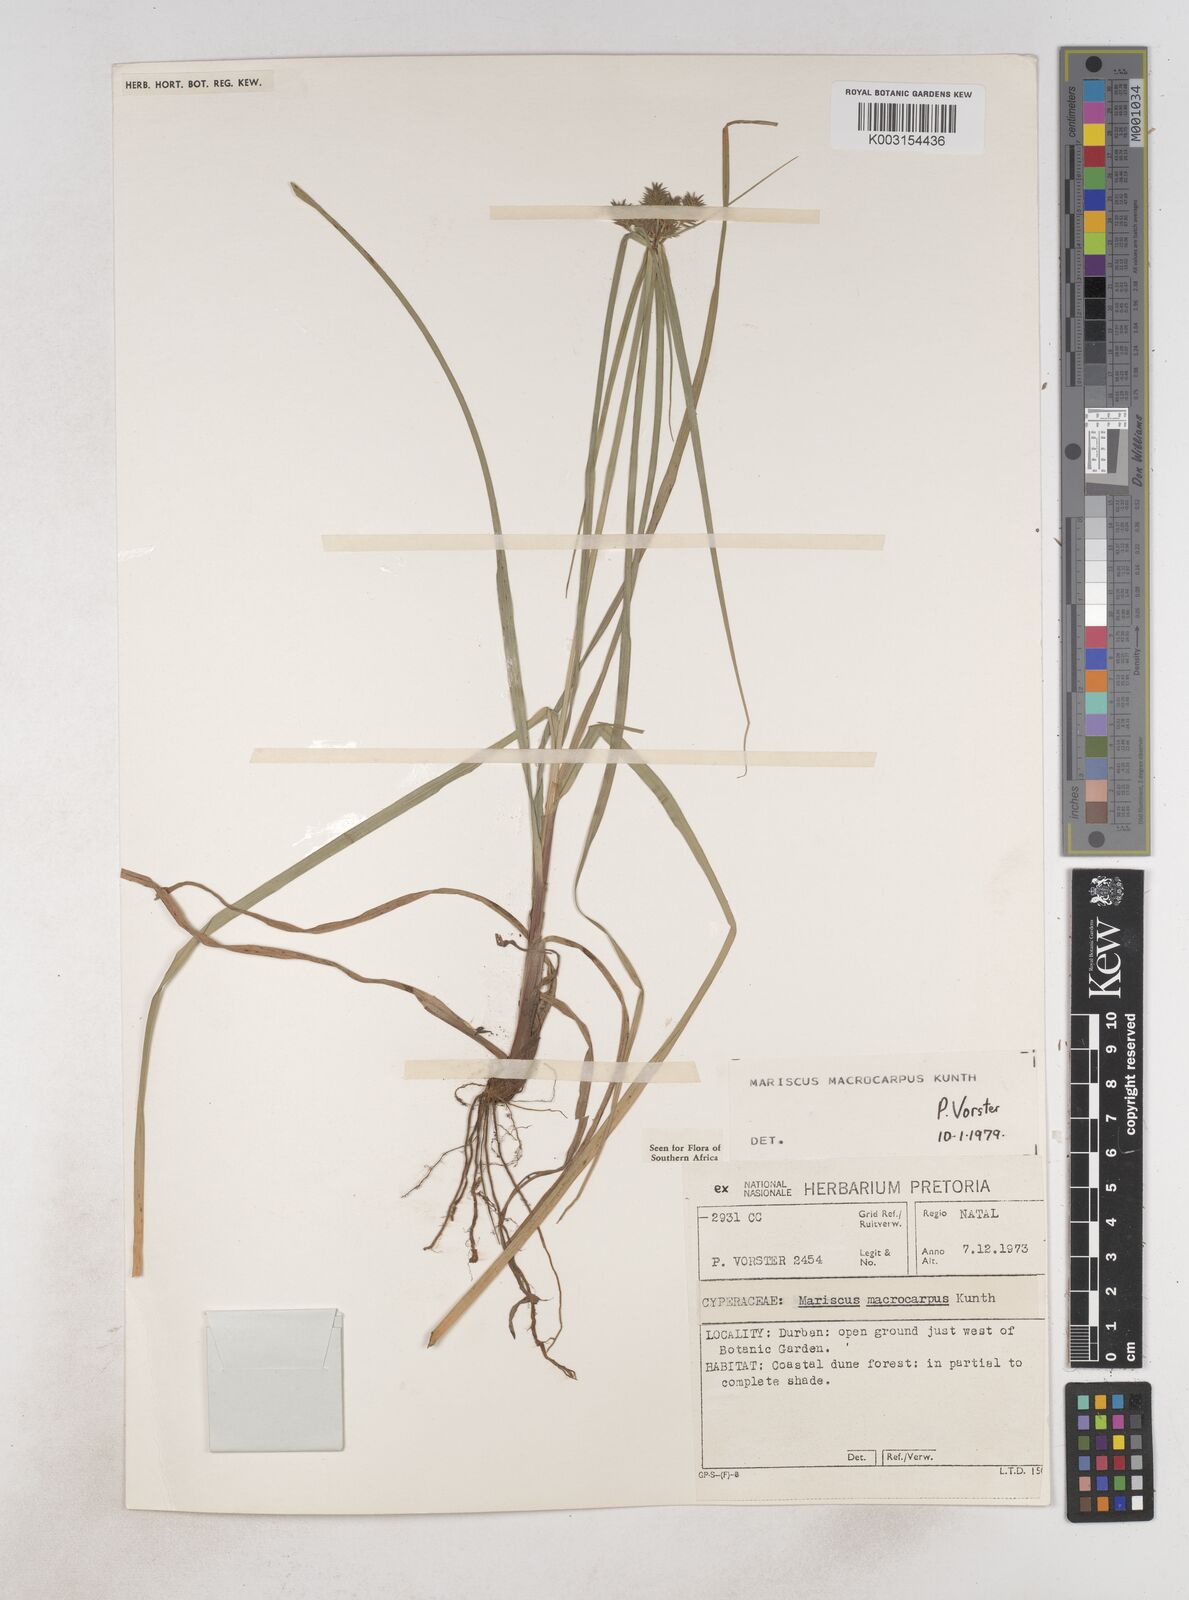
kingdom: Plantae
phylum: Tracheophyta
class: Liliopsida
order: Poales
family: Cyperaceae
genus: Cyperus
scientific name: Cyperus macrocarpus
